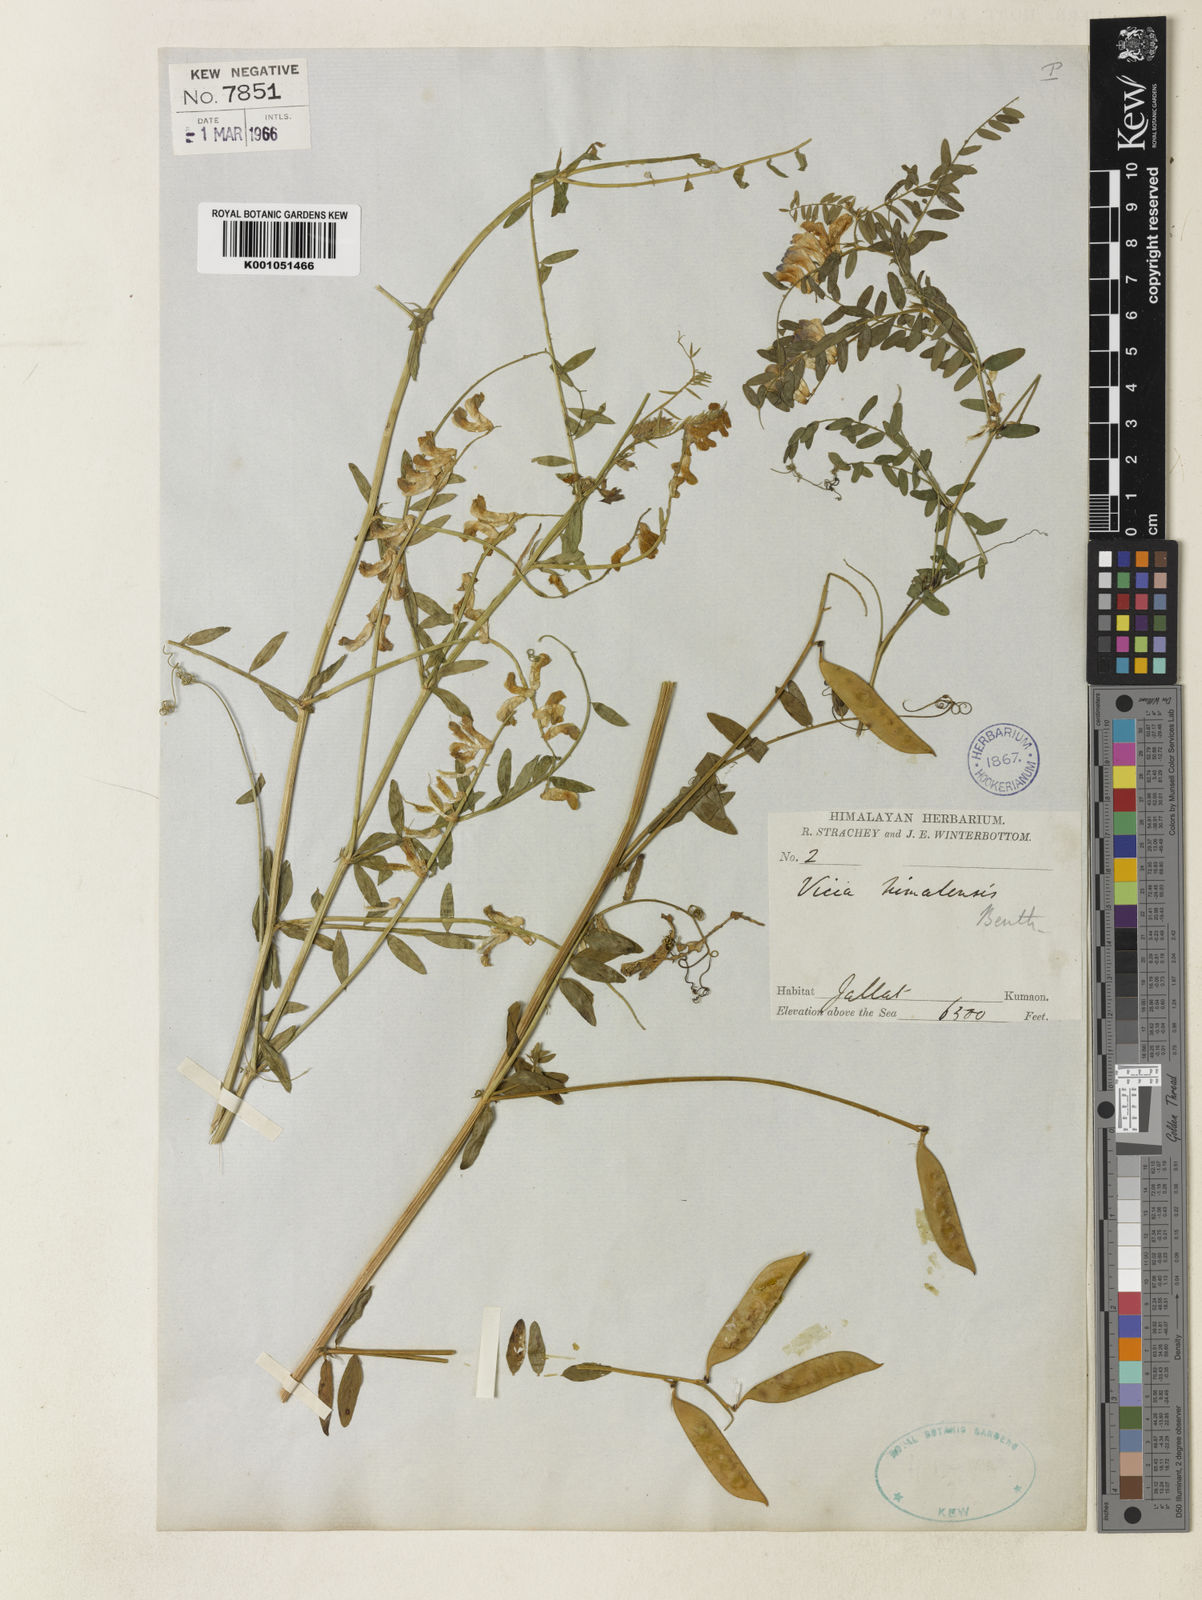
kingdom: Plantae
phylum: Tracheophyta
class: Magnoliopsida
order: Fabales
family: Fabaceae
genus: Vicia
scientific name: Vicia bakeri
